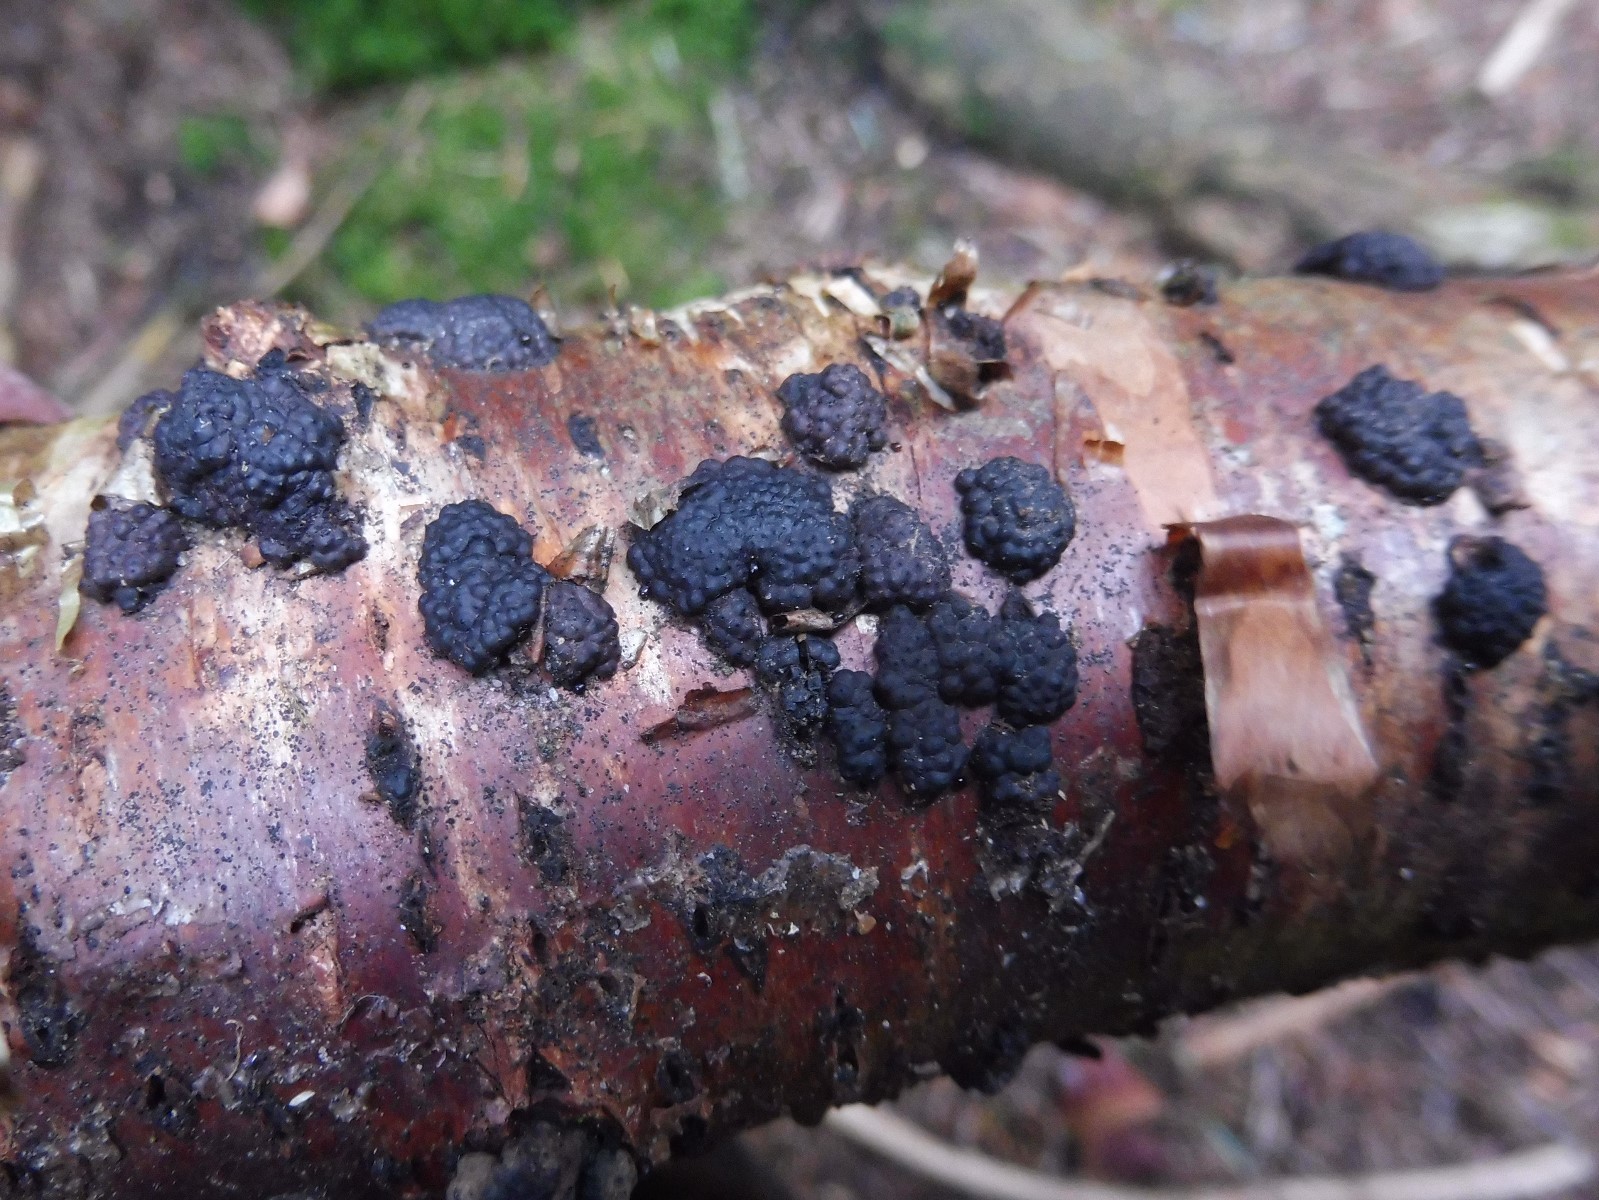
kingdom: Fungi
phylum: Ascomycota
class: Sordariomycetes
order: Xylariales
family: Hypoxylaceae
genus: Jackrogersella
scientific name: Jackrogersella multiformis
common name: foranderlig kulbær
